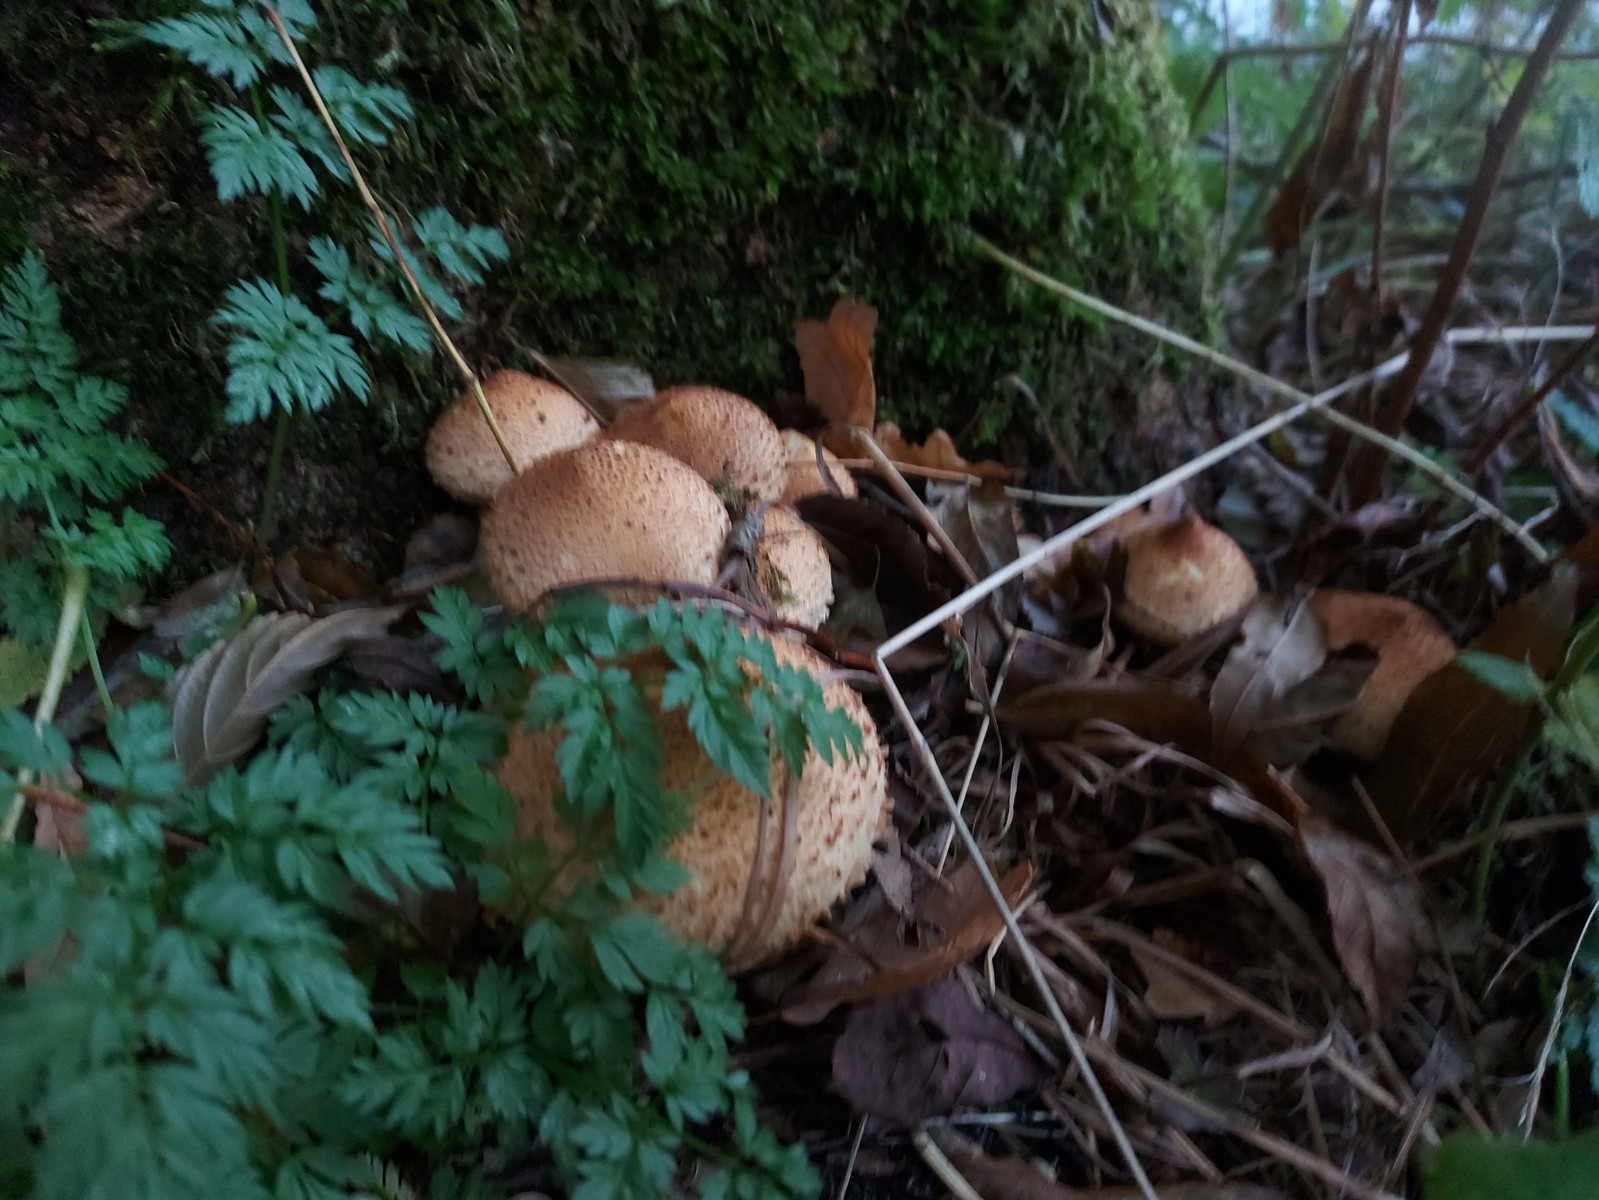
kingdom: Fungi
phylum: Basidiomycota
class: Agaricomycetes
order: Agaricales
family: Strophariaceae
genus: Pholiota
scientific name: Pholiota squarrosa
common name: krumskællet skælhat
